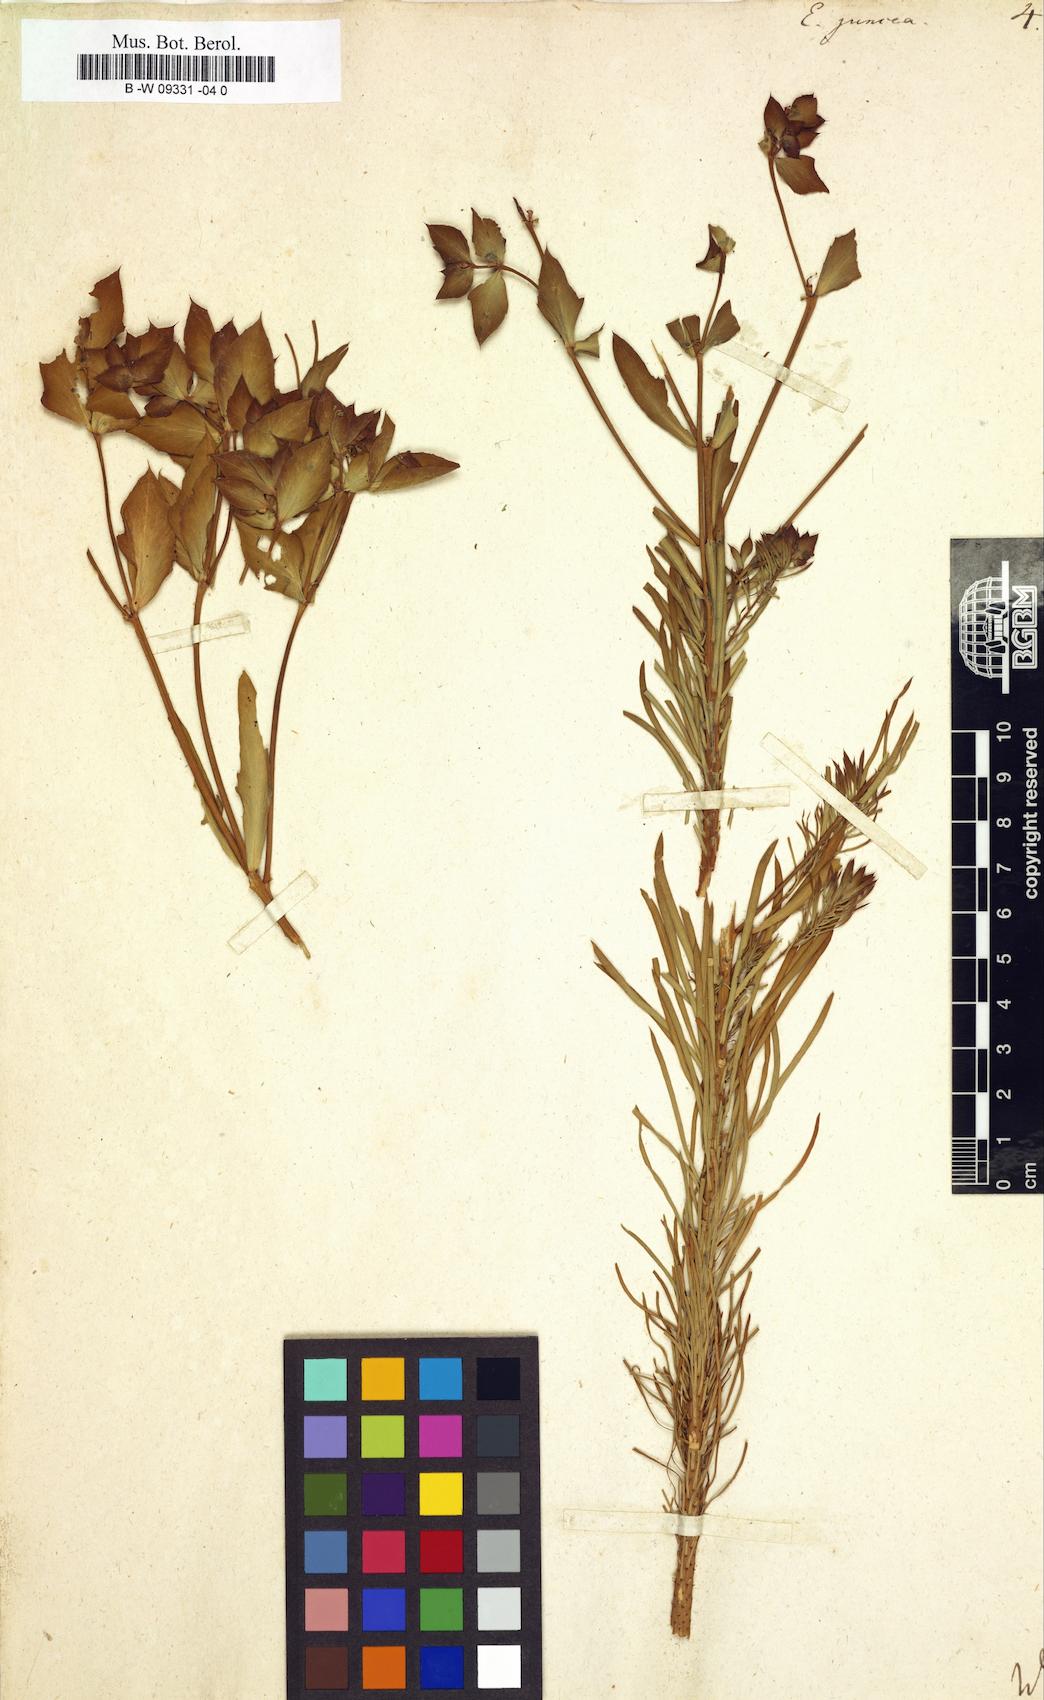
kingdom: Plantae
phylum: Tracheophyta
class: Magnoliopsida
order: Malpighiales
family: Euphorbiaceae
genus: Euphorbia
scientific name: Euphorbia aleppica
